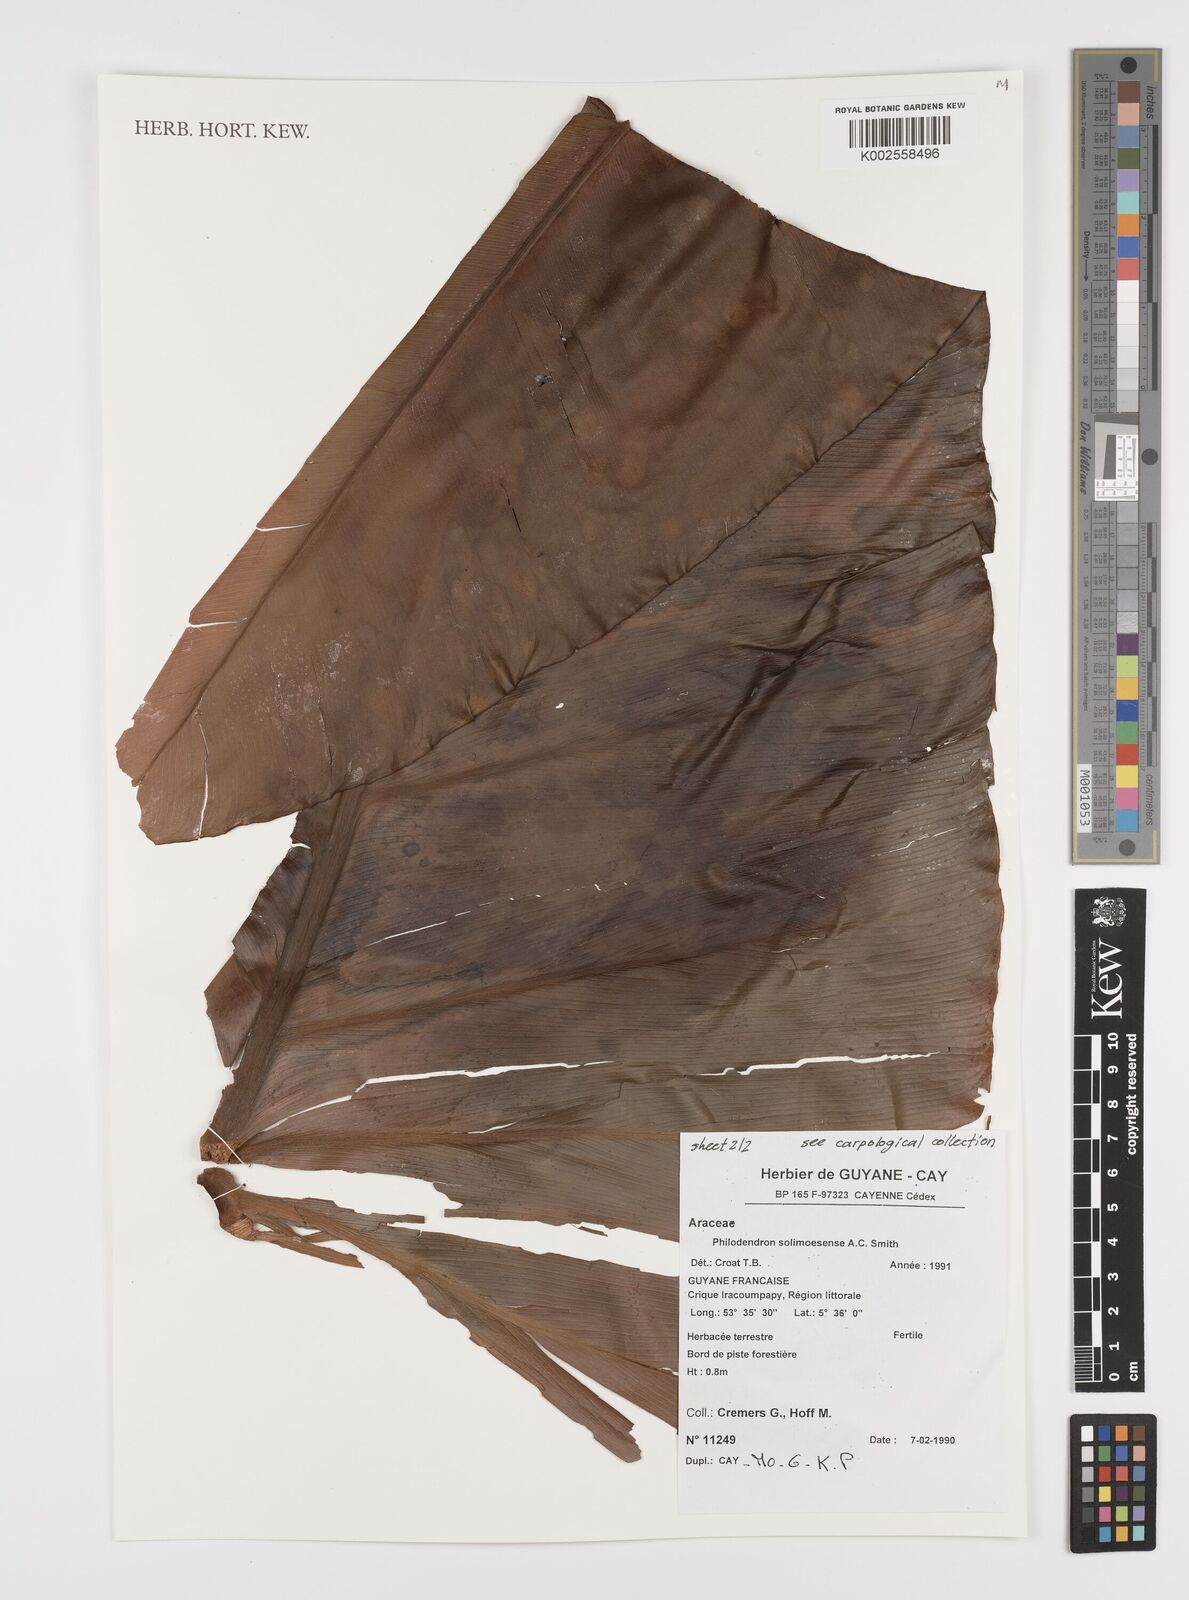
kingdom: Plantae
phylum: Tracheophyta
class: Liliopsida
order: Alismatales
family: Araceae
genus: Thaumatophyllum
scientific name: Thaumatophyllum solimoesense
